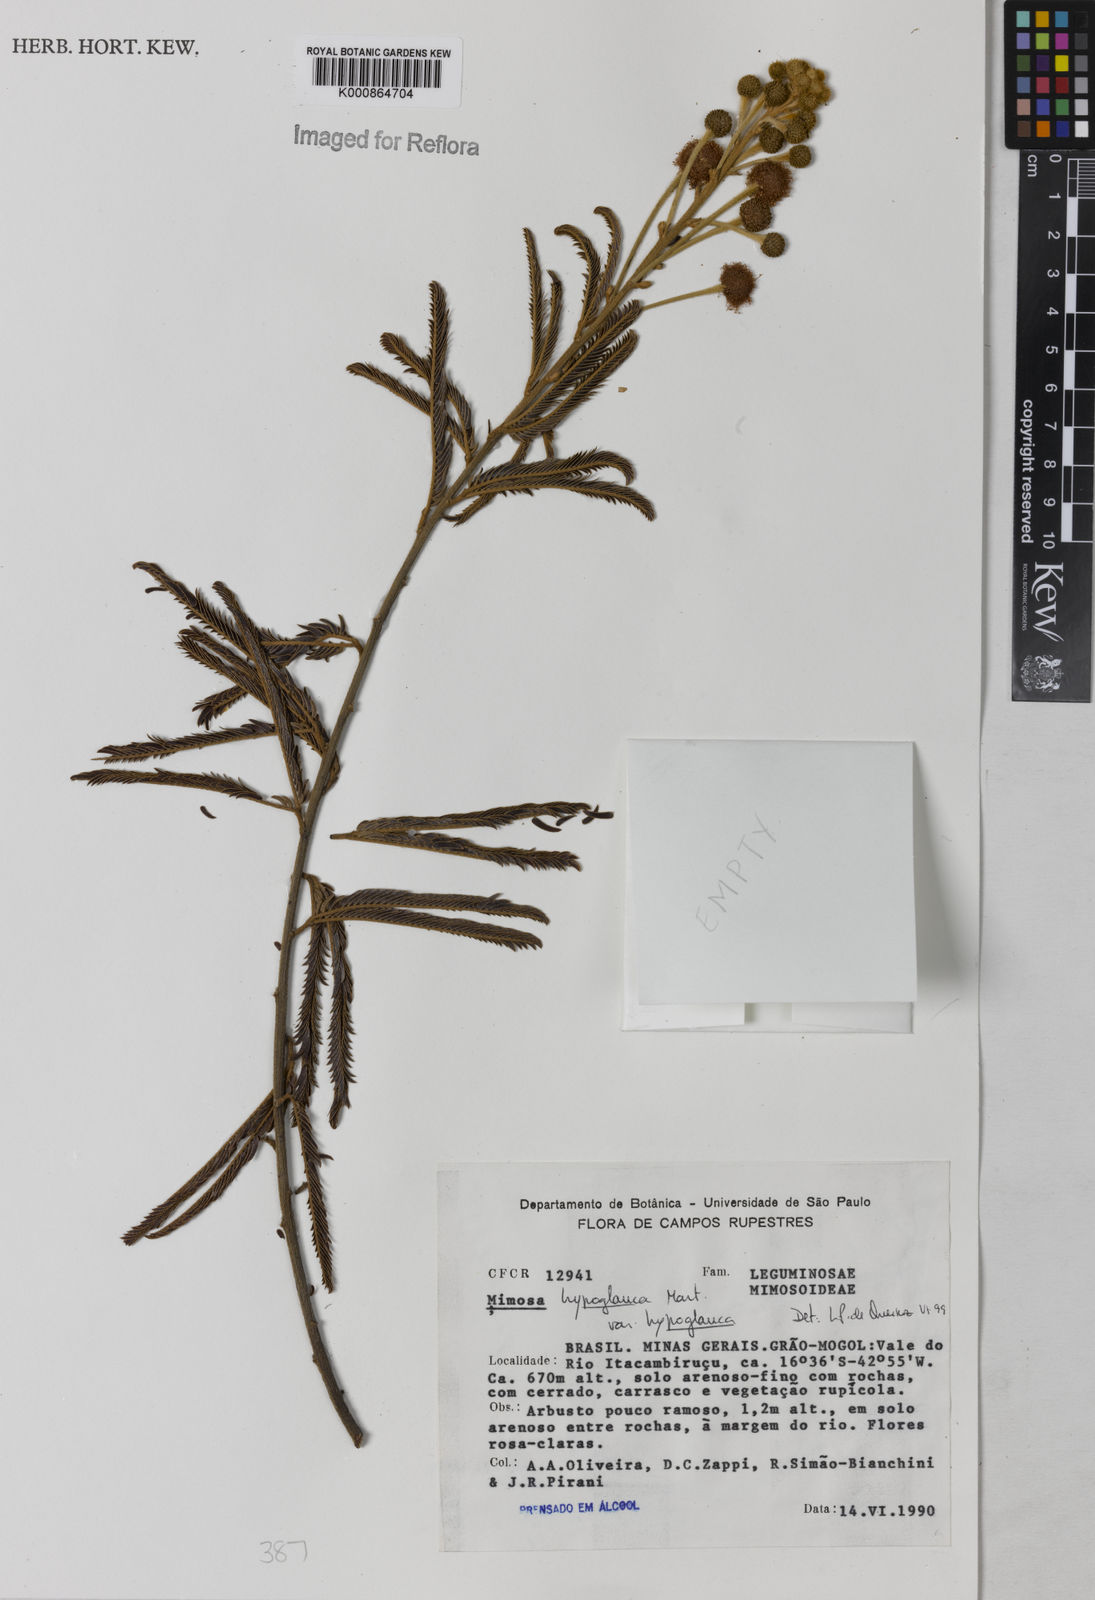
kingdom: Plantae
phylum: Tracheophyta
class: Magnoliopsida
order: Fabales
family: Fabaceae
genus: Mimosa
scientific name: Mimosa hypoglauca
